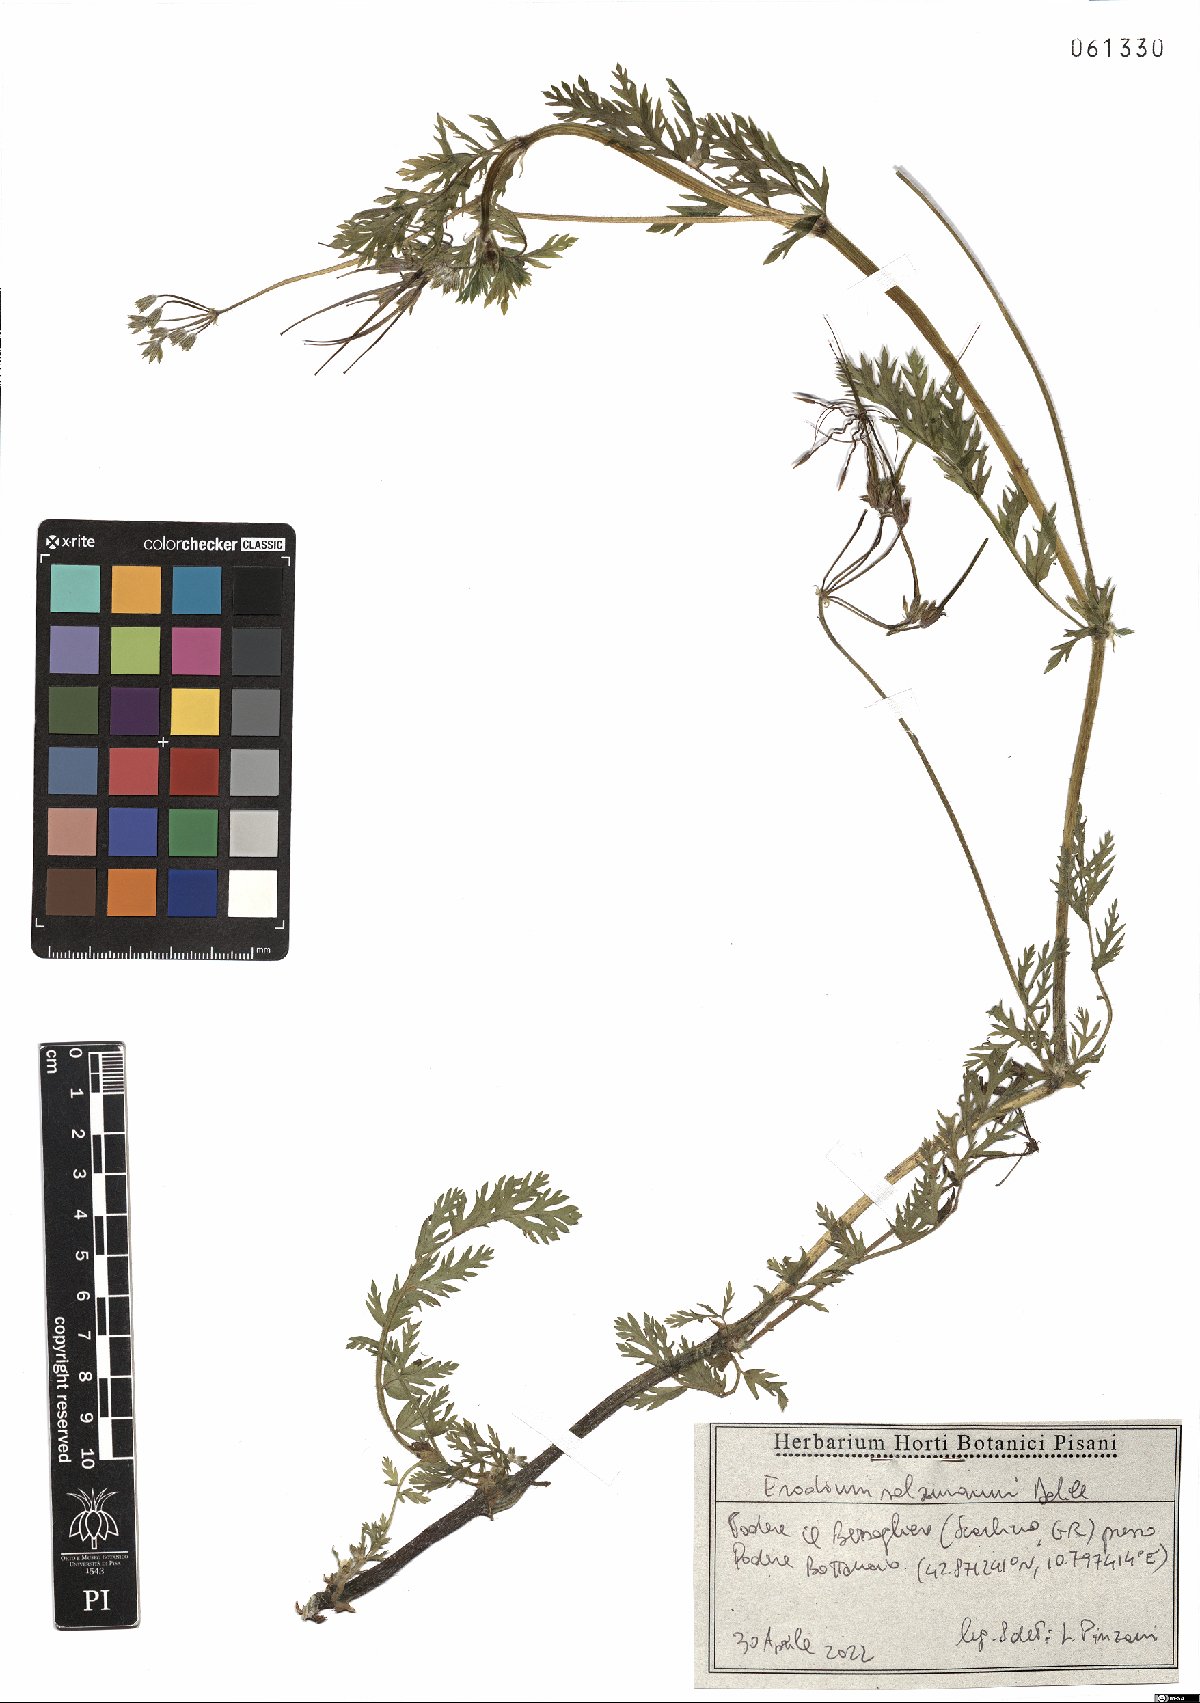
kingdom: Plantae
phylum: Tracheophyta
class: Magnoliopsida
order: Geraniales
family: Geraniaceae
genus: Erodium
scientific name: Erodium salzmannii
